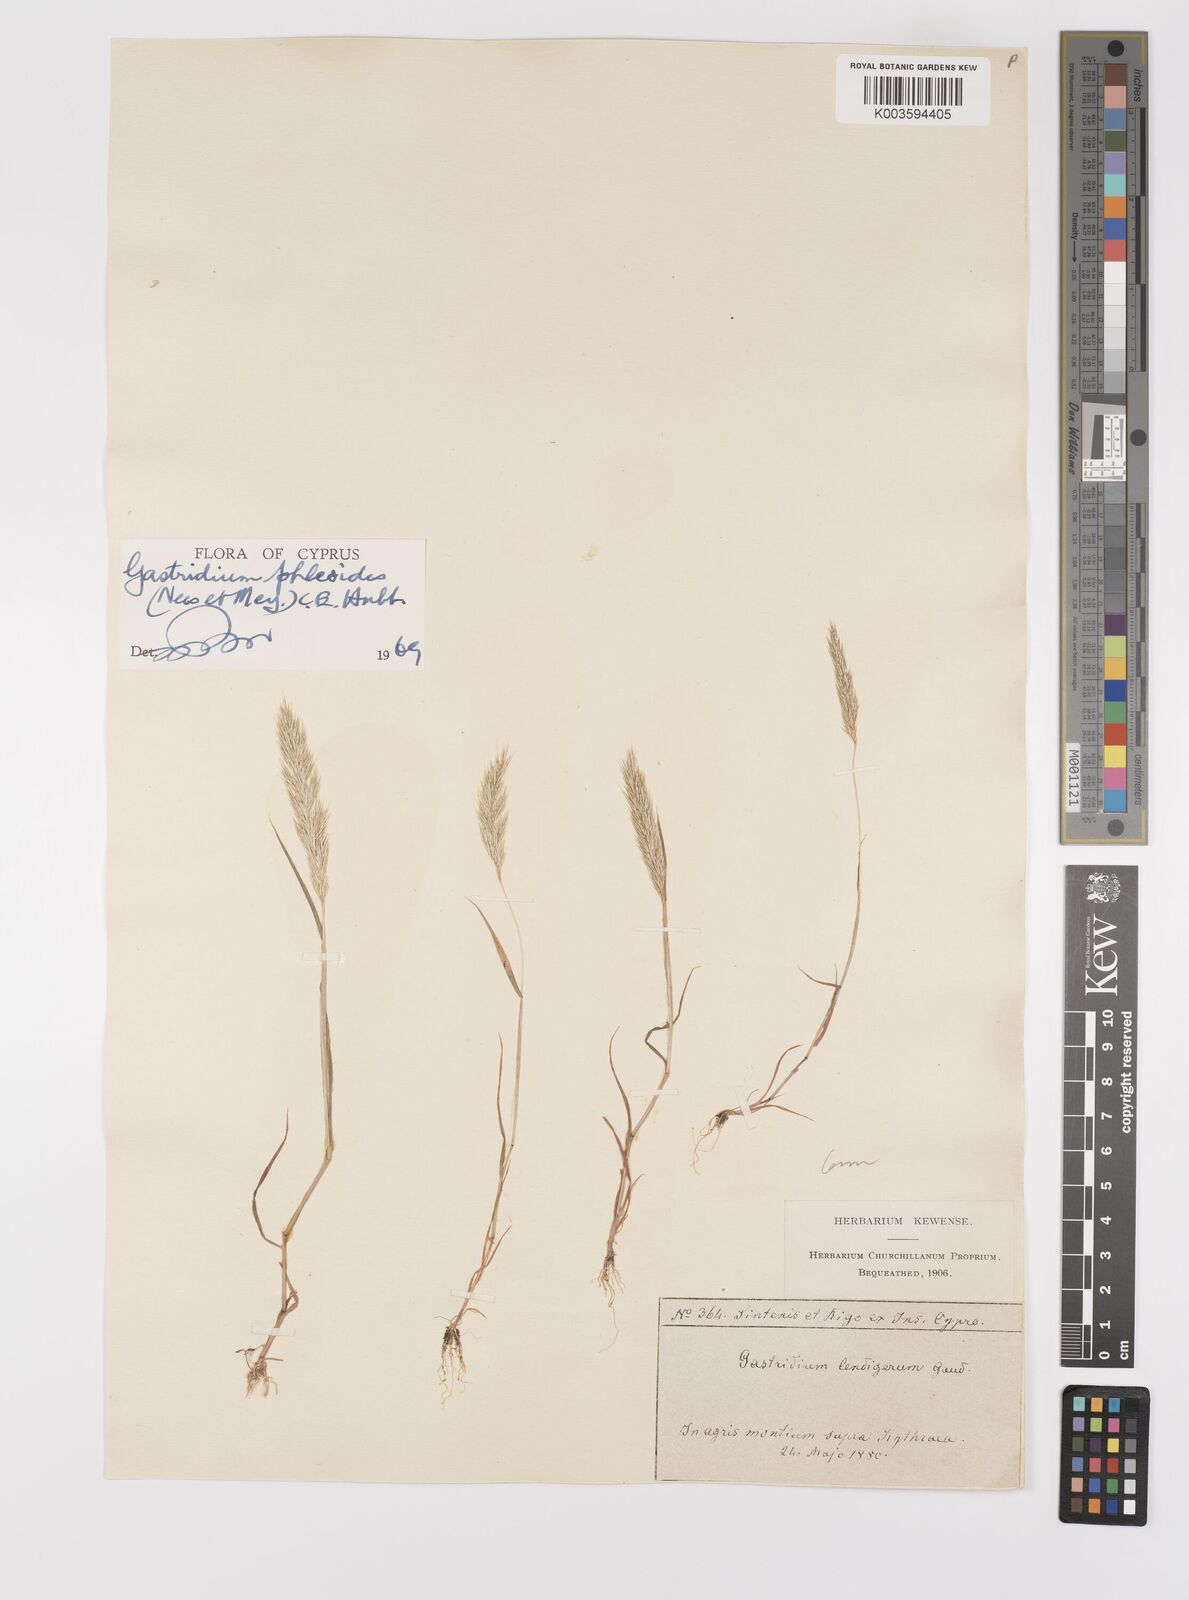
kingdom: Plantae
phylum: Tracheophyta
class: Liliopsida
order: Poales
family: Poaceae
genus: Gastridium
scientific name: Gastridium phleoides
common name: Nit grass
